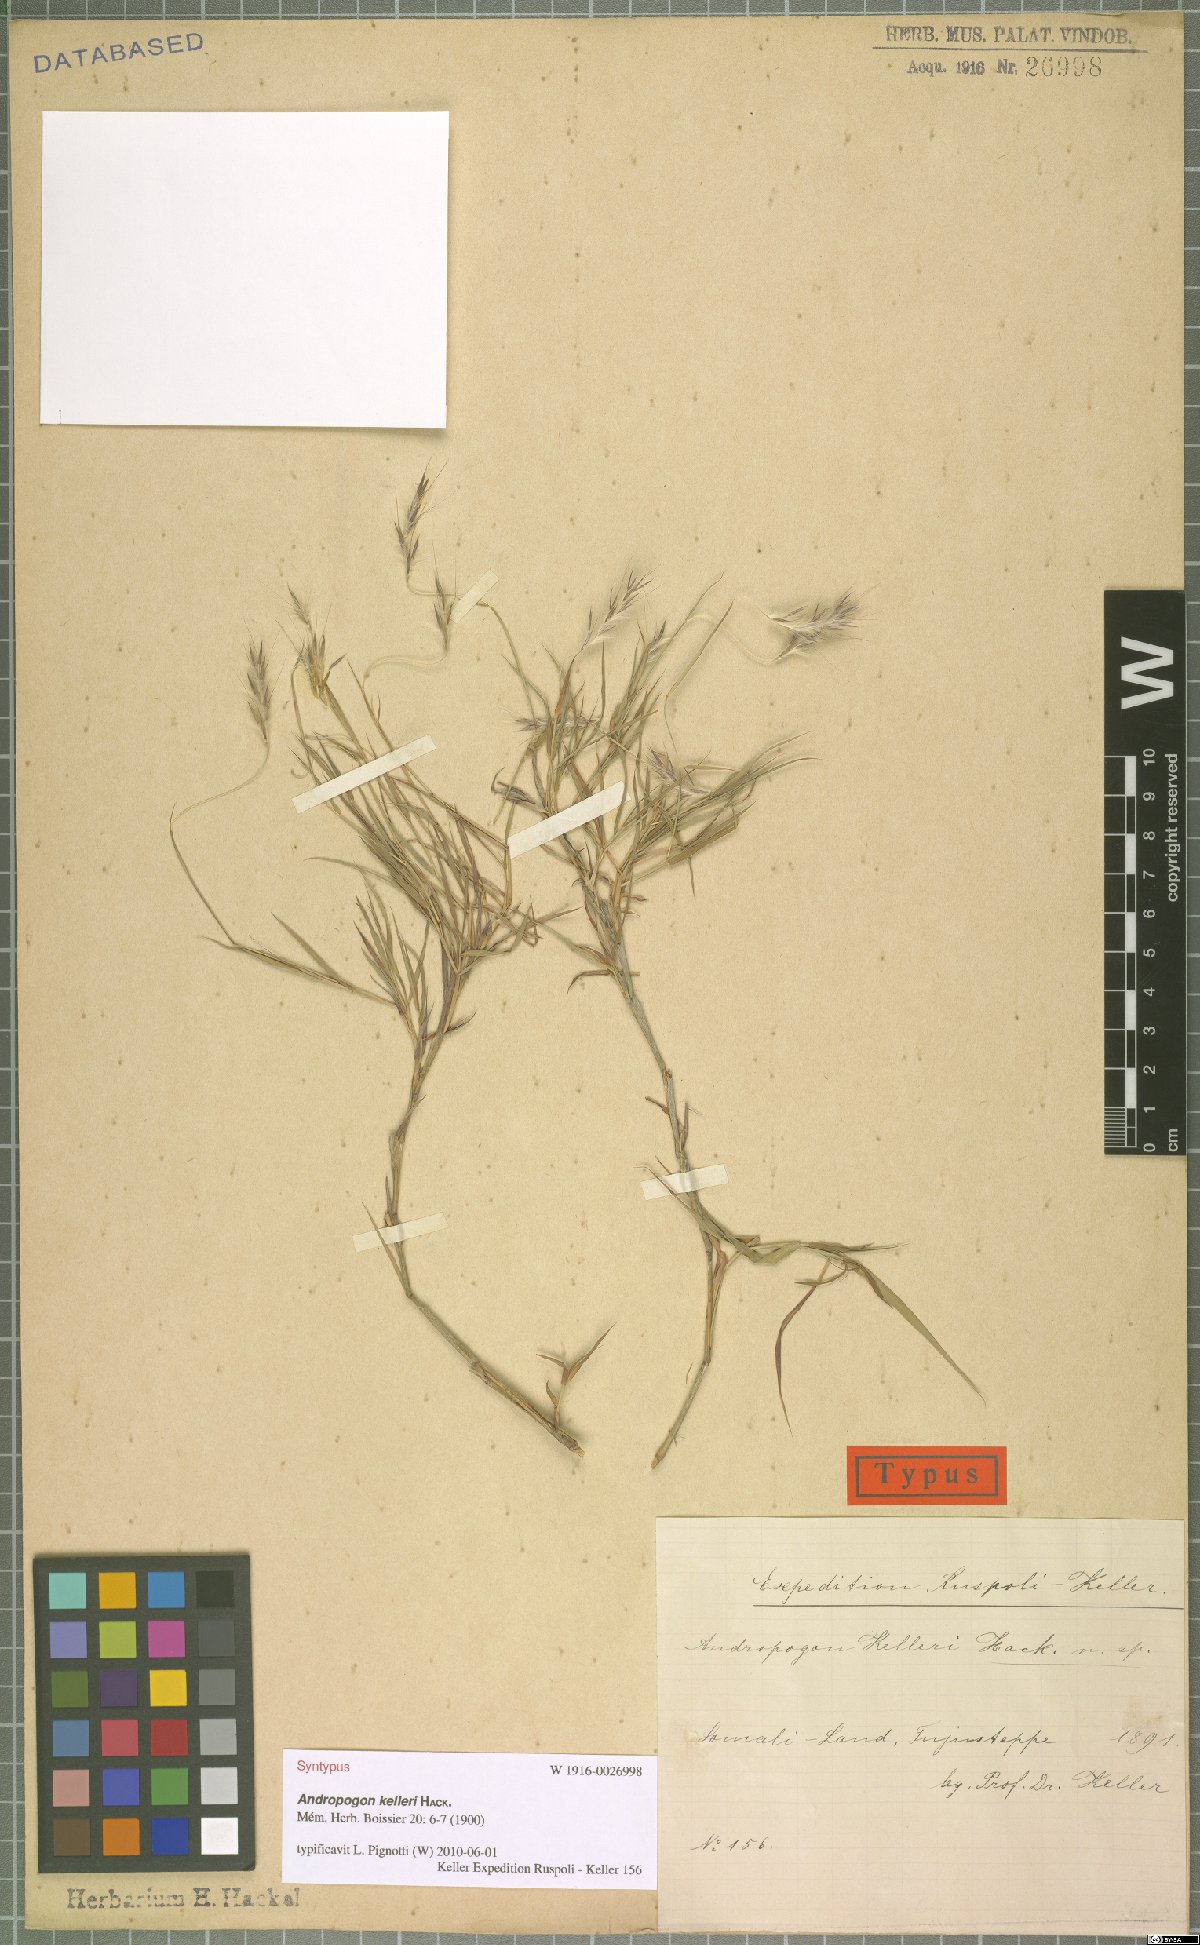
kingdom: Plantae
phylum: Tracheophyta
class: Liliopsida
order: Poales
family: Poaceae
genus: Andropogon
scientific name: Andropogon kelleri
